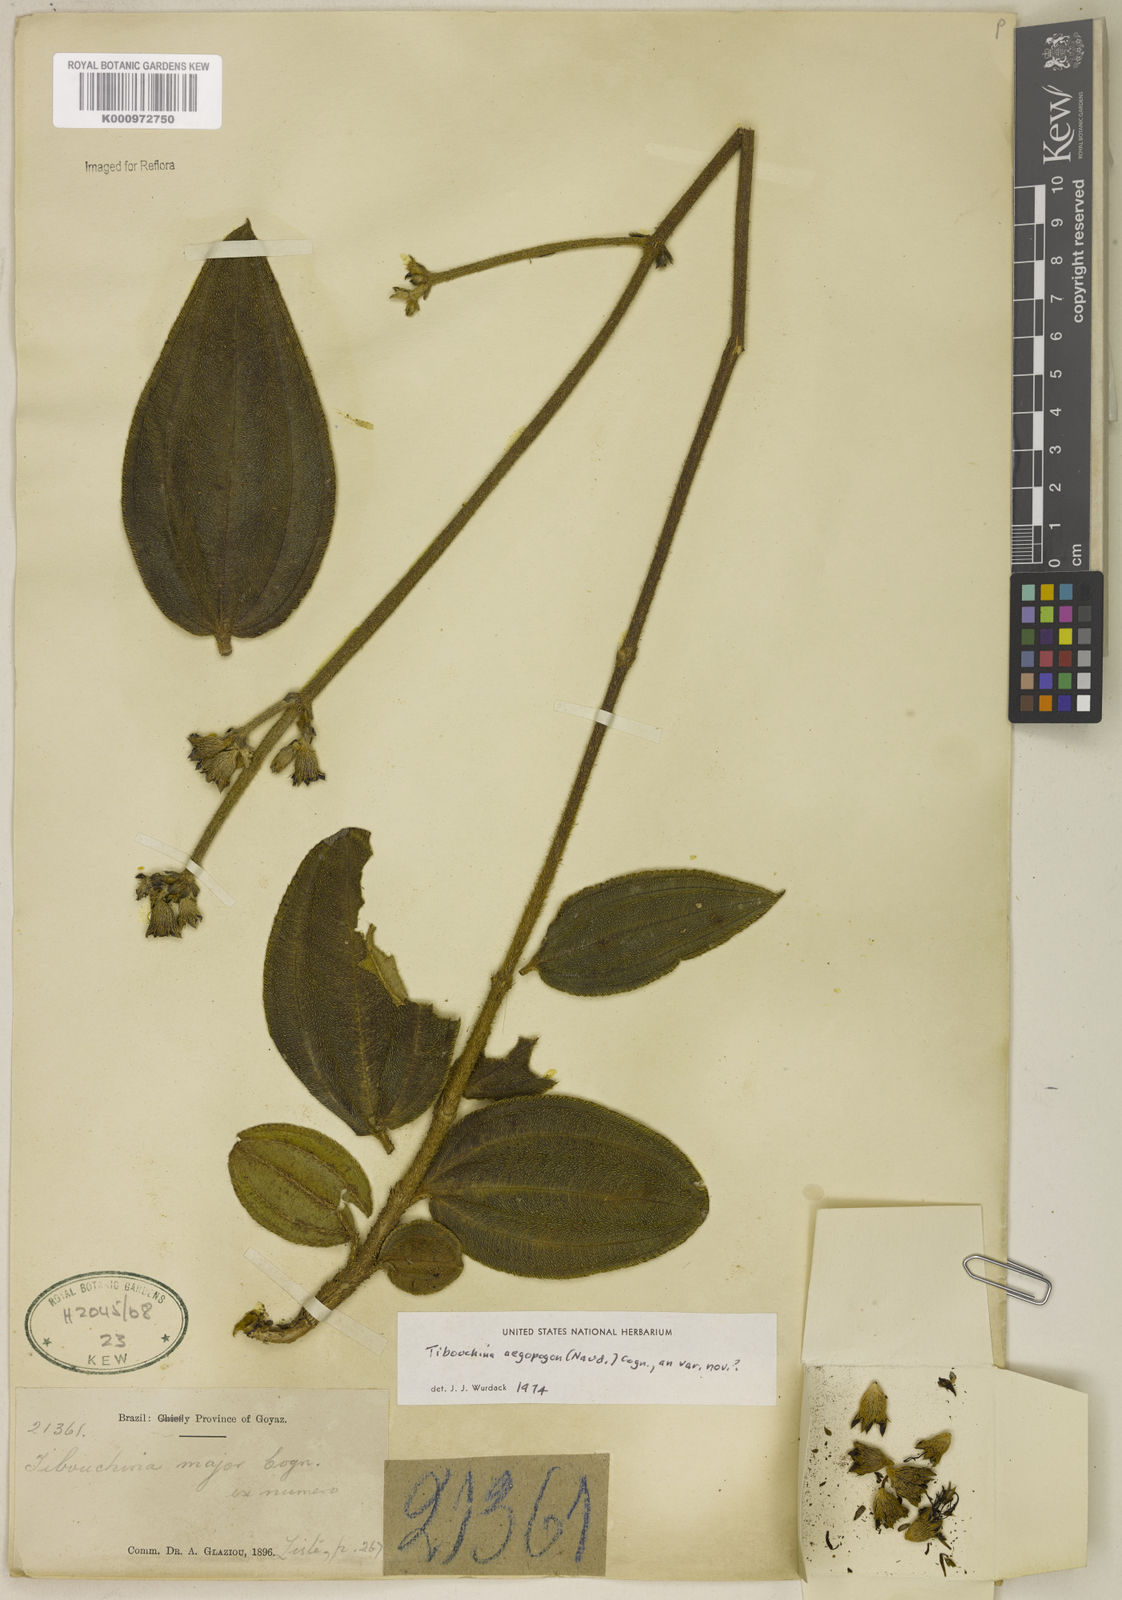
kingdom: Plantae
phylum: Tracheophyta
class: Magnoliopsida
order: Myrtales
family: Melastomataceae
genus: Pleroma
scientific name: Pleroma aegopogon
